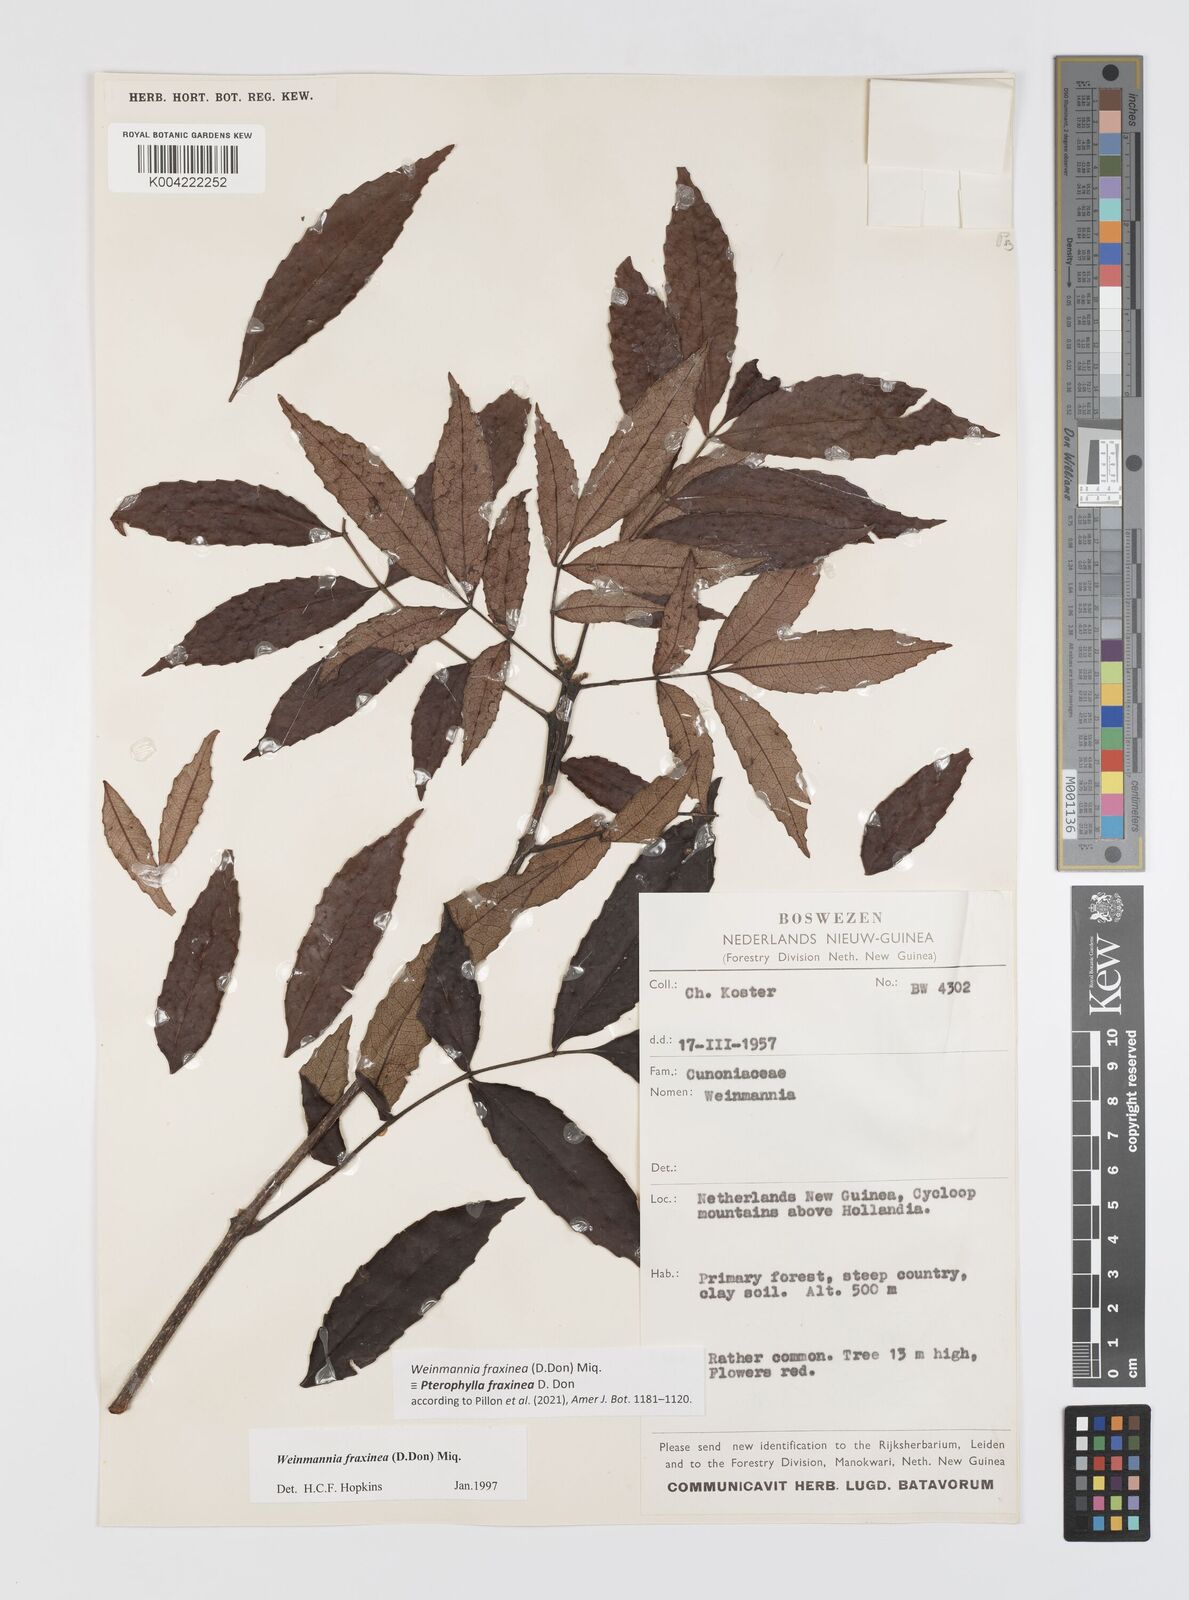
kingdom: Plantae
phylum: Tracheophyta
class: Magnoliopsida
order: Oxalidales
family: Cunoniaceae
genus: Pterophylla
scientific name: Pterophylla fraxinea
